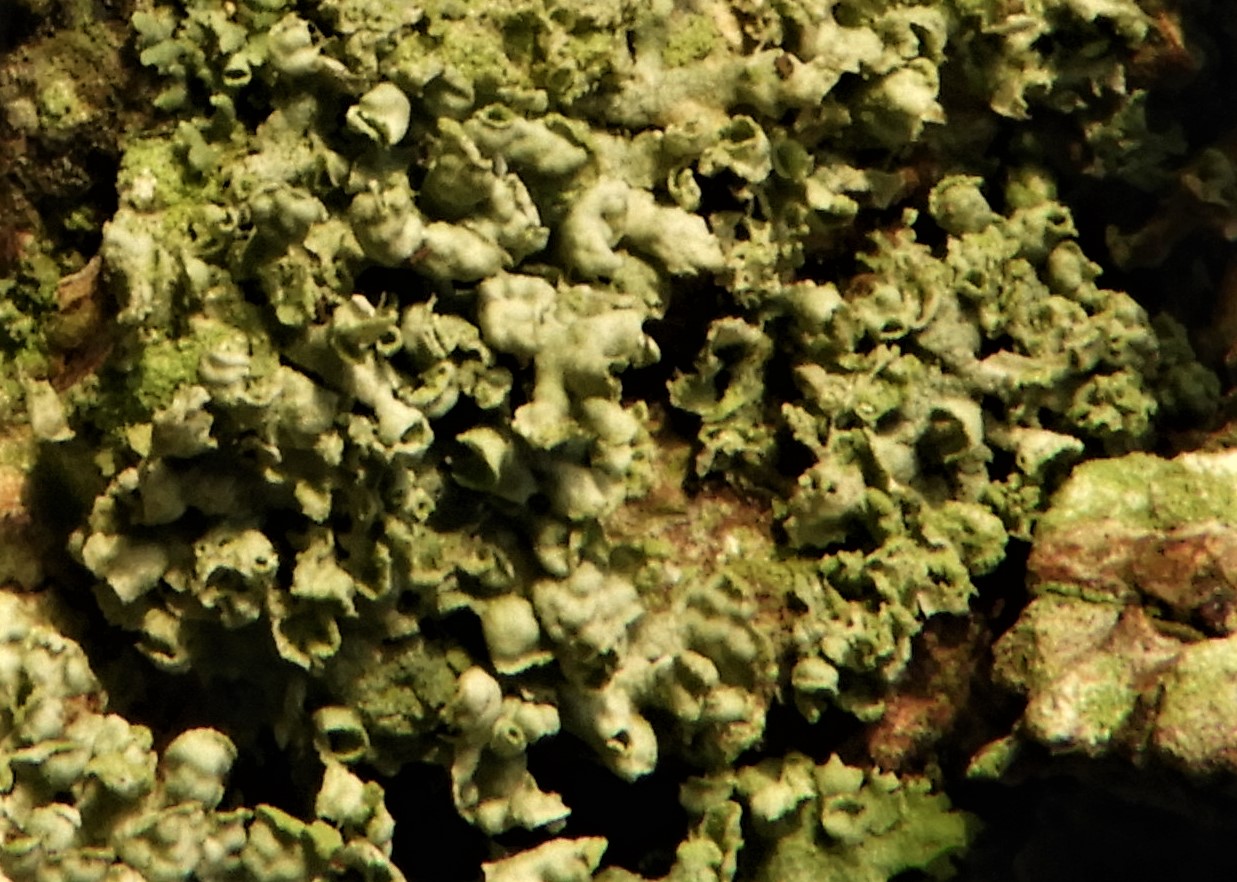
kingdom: Fungi
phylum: Ascomycota
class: Lecanoromycetes
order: Caliciales
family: Physciaceae
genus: Physcia
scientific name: Physcia adscendens
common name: hætte-rosetlav
